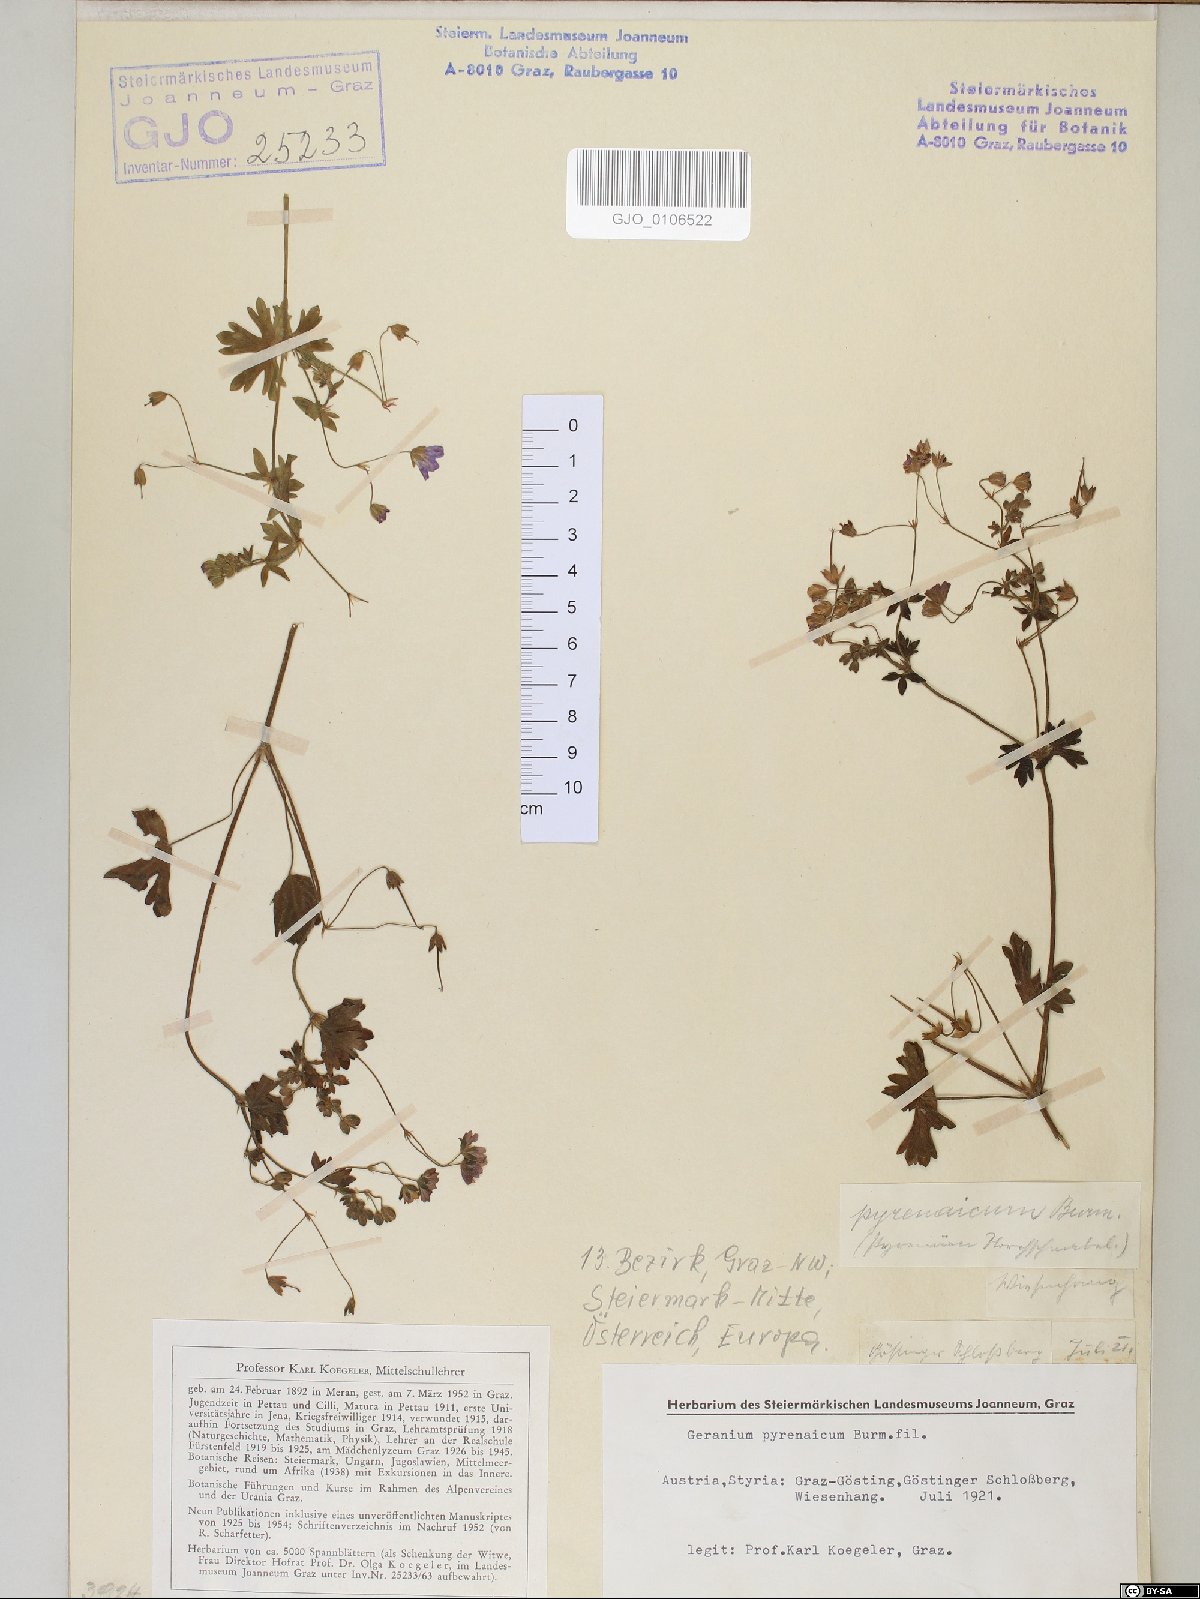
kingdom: Plantae
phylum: Tracheophyta
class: Magnoliopsida
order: Geraniales
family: Geraniaceae
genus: Geranium
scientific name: Geranium pyrenaicum
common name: Hedgerow crane's-bill
